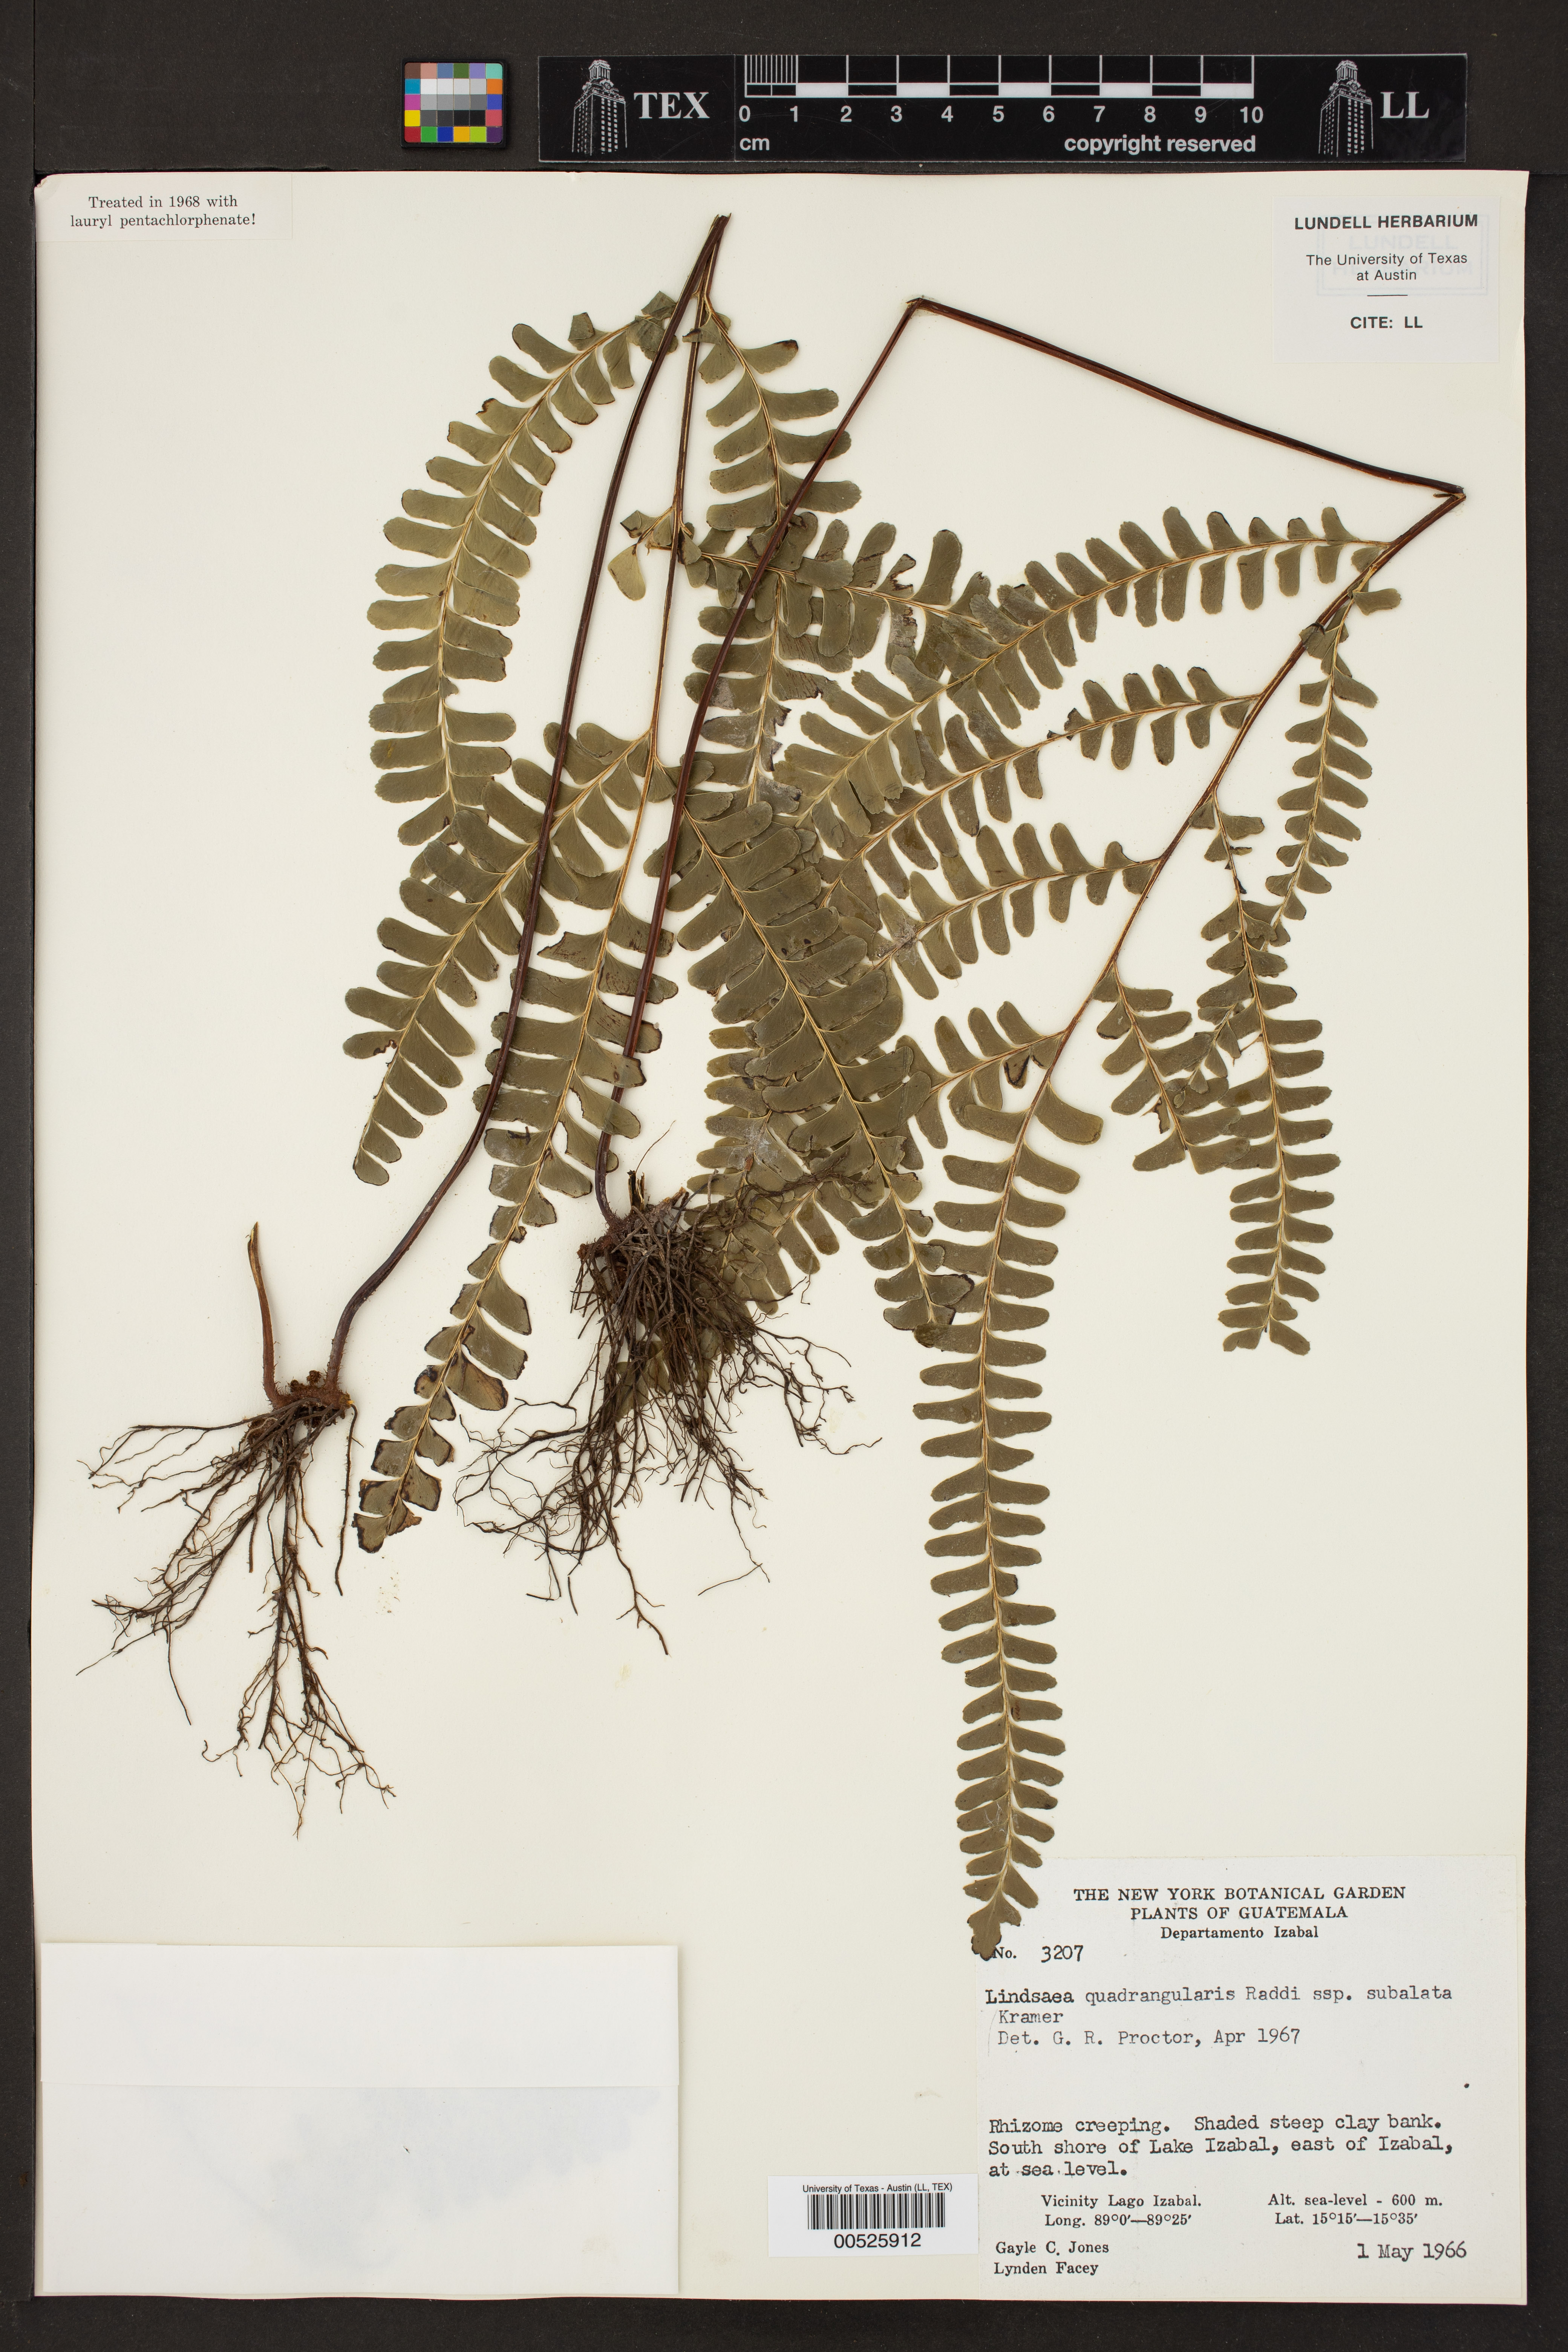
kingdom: Plantae
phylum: Tracheophyta
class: Polypodiopsida
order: Polypodiales
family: Lindsaeaceae
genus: Lindsaea
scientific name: Lindsaea quadrangularis
